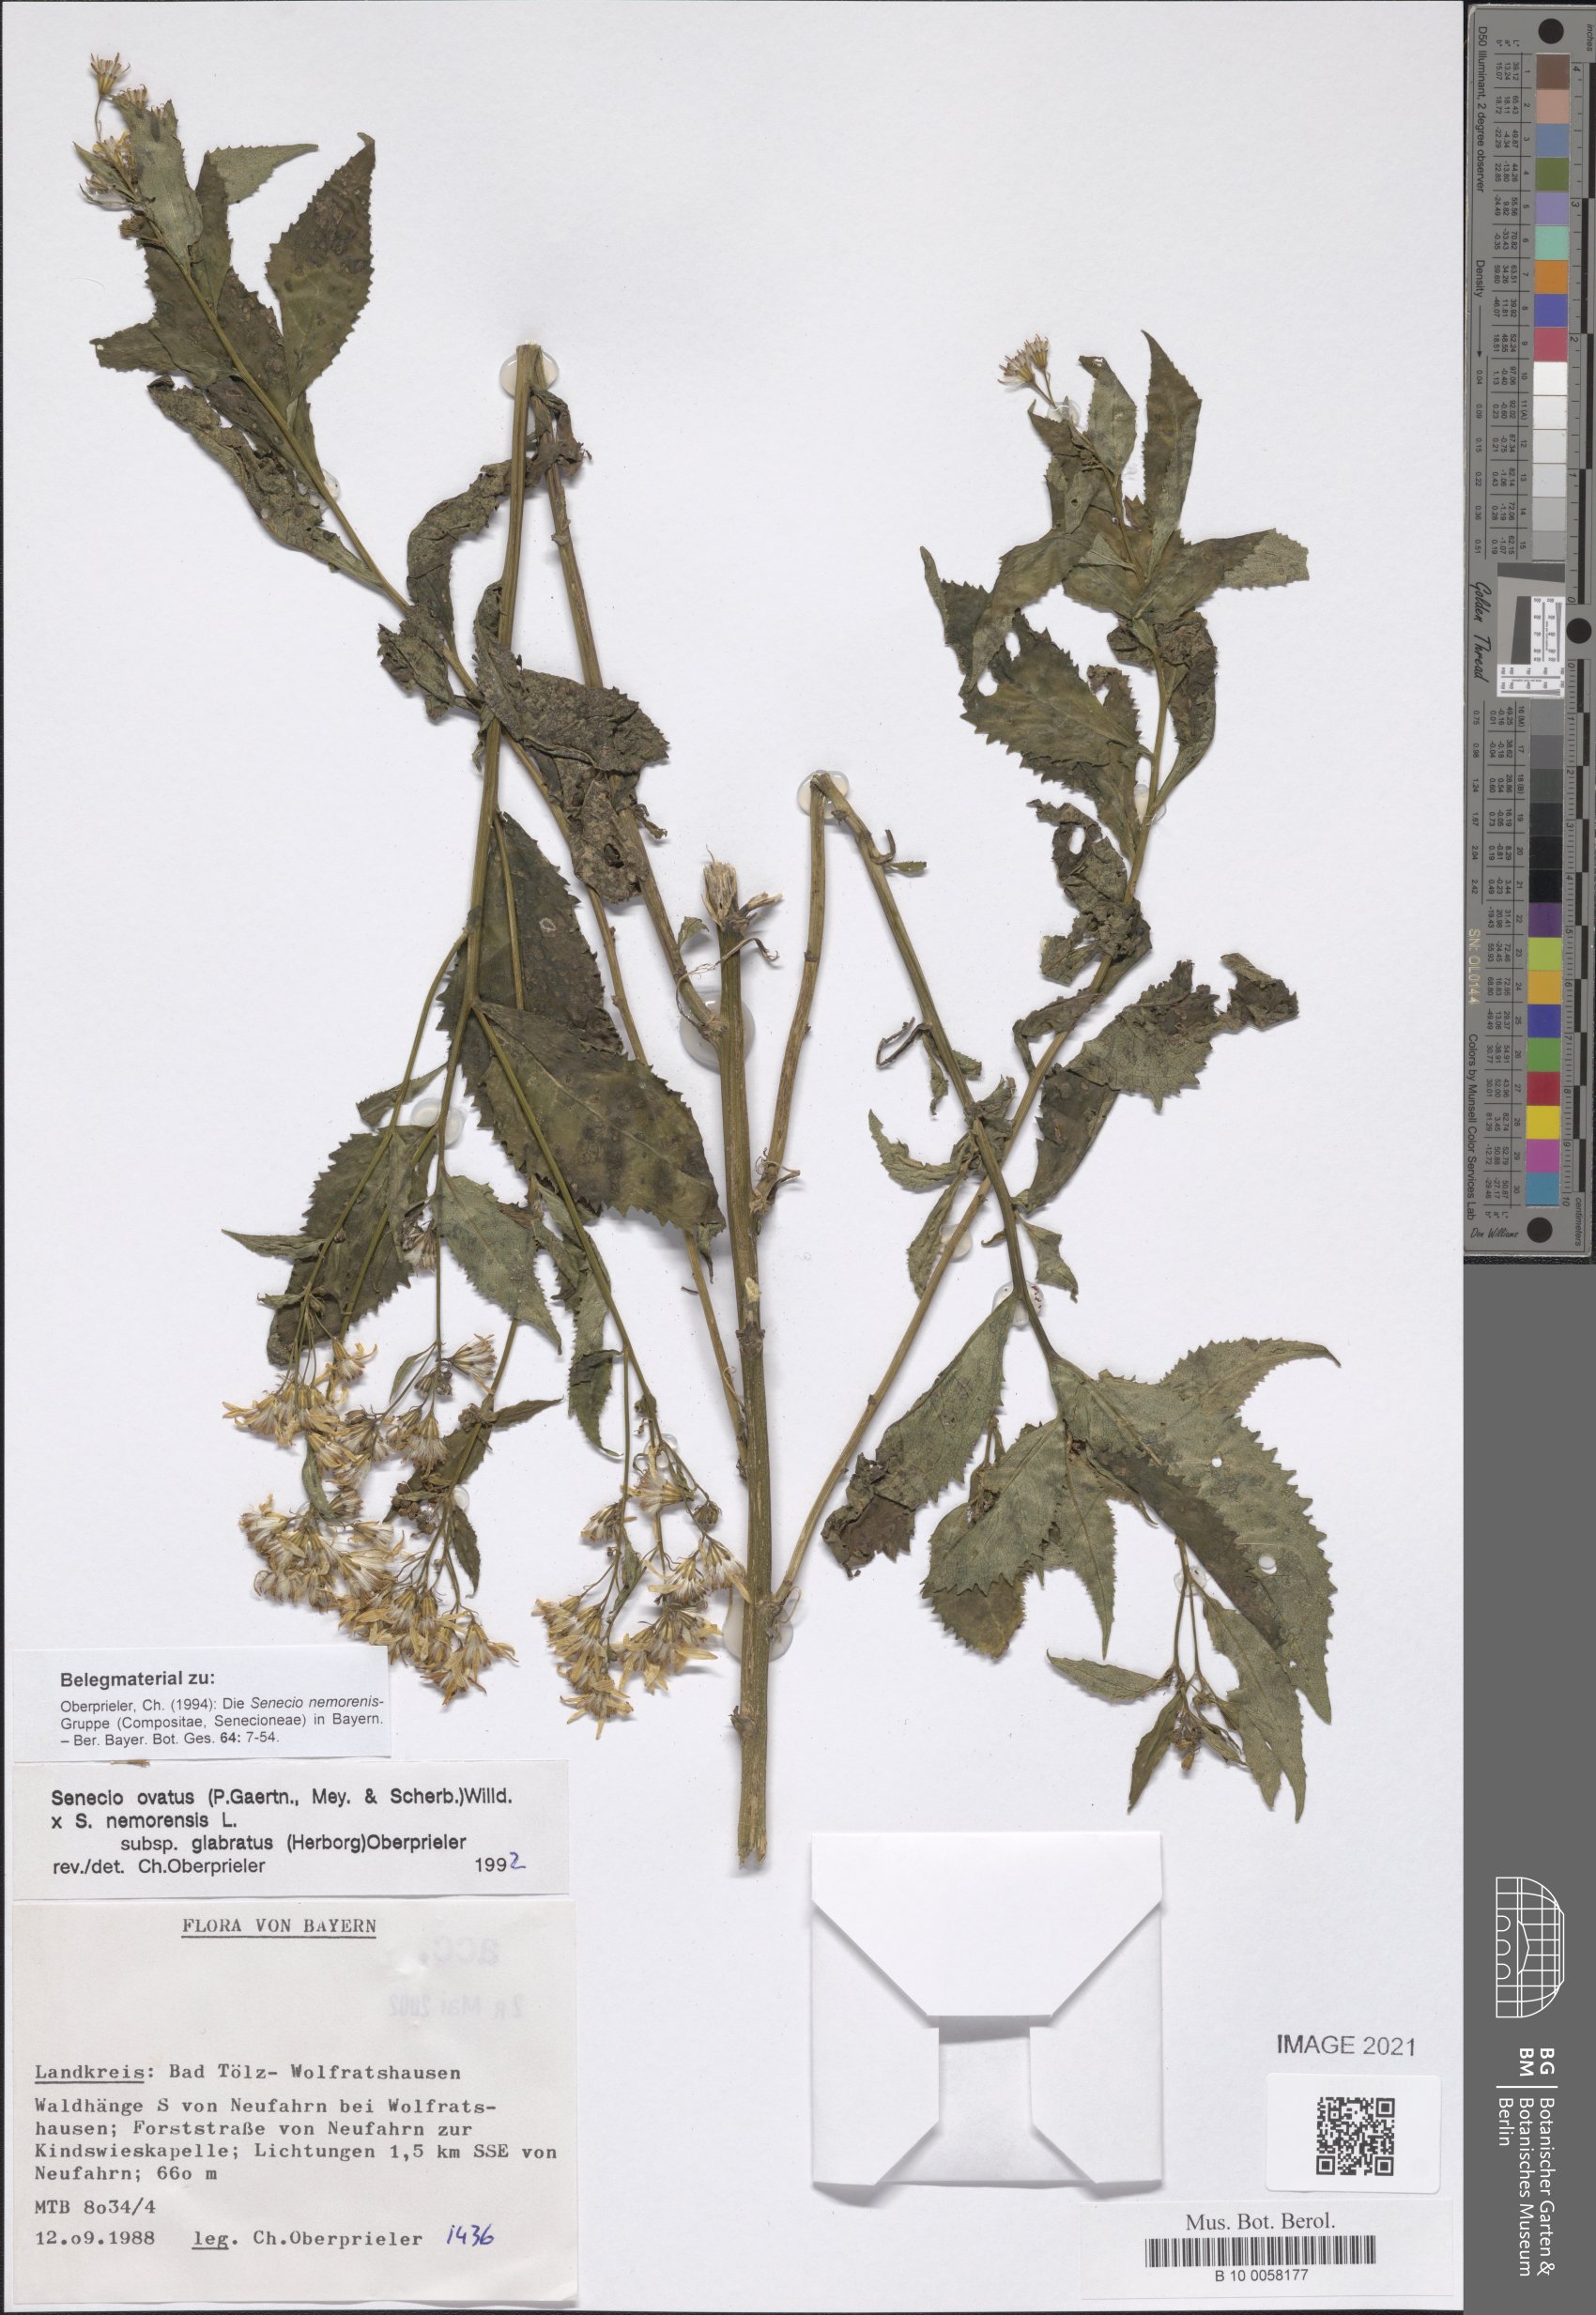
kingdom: Plantae
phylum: Tracheophyta
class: Magnoliopsida
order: Asterales
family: Asteraceae
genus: Senecio
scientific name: Senecio ovatus
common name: Wood ragwort
